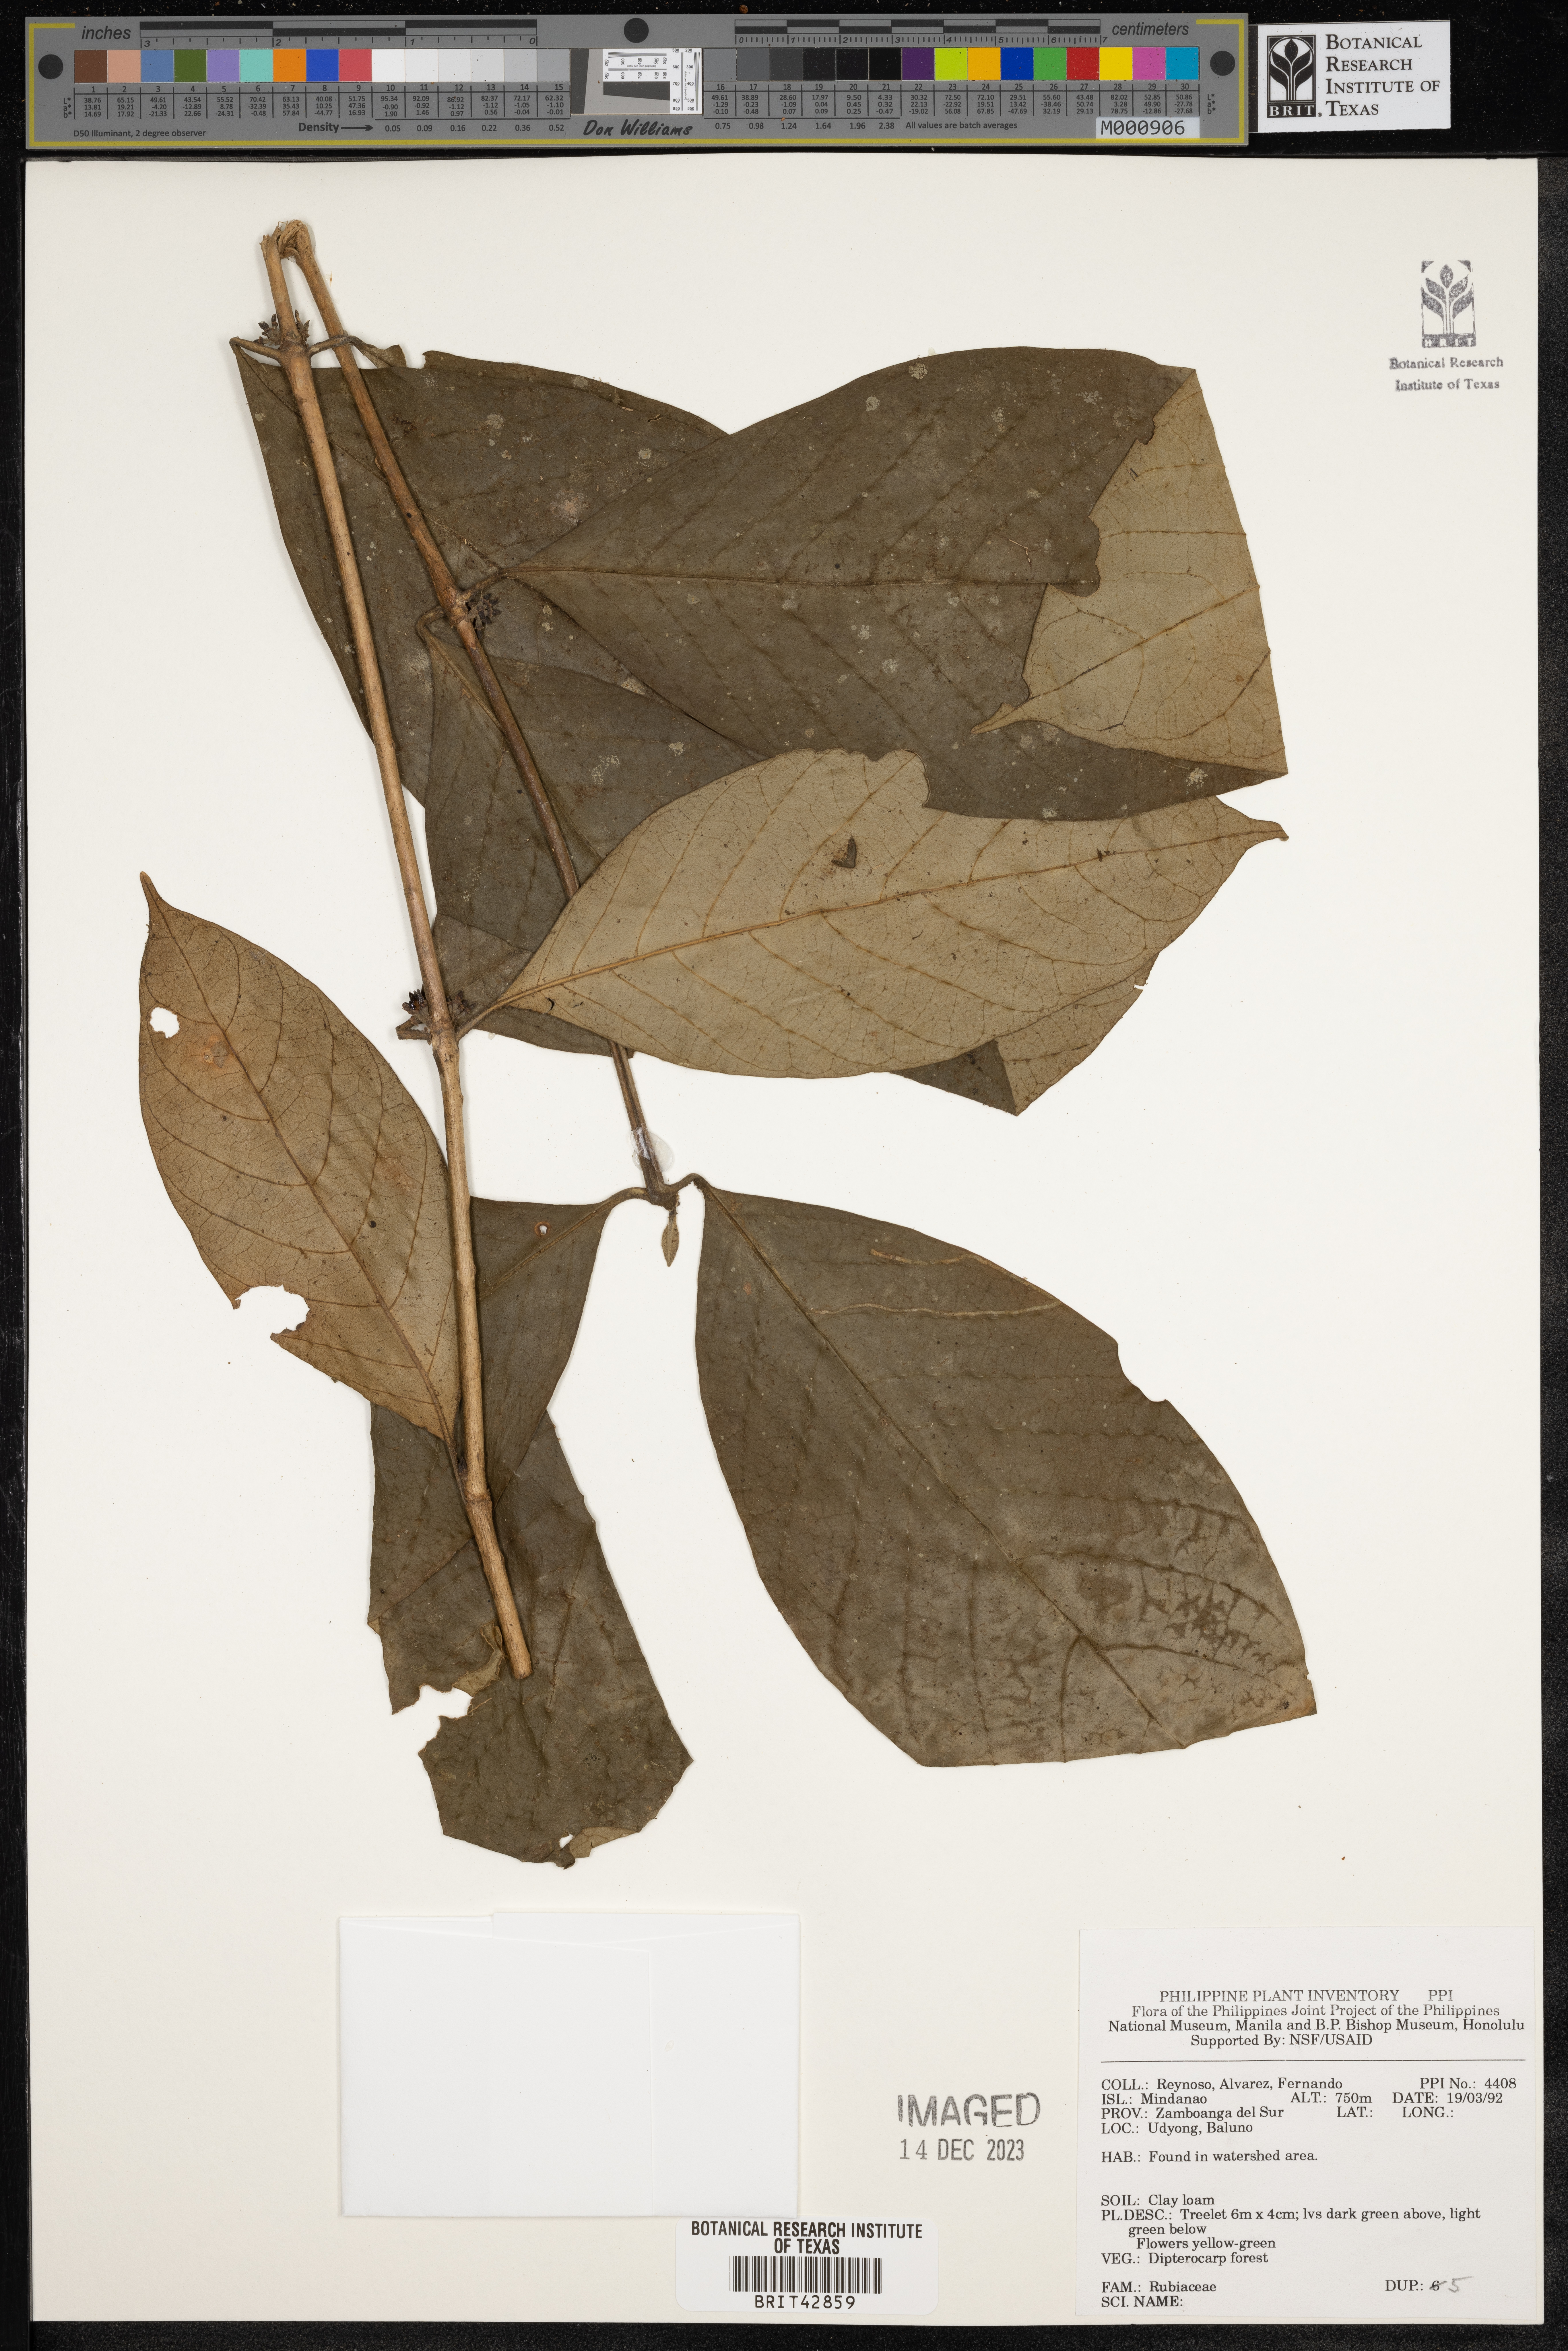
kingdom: Plantae
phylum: Tracheophyta
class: Magnoliopsida
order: Gentianales
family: Rubiaceae
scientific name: Rubiaceae
